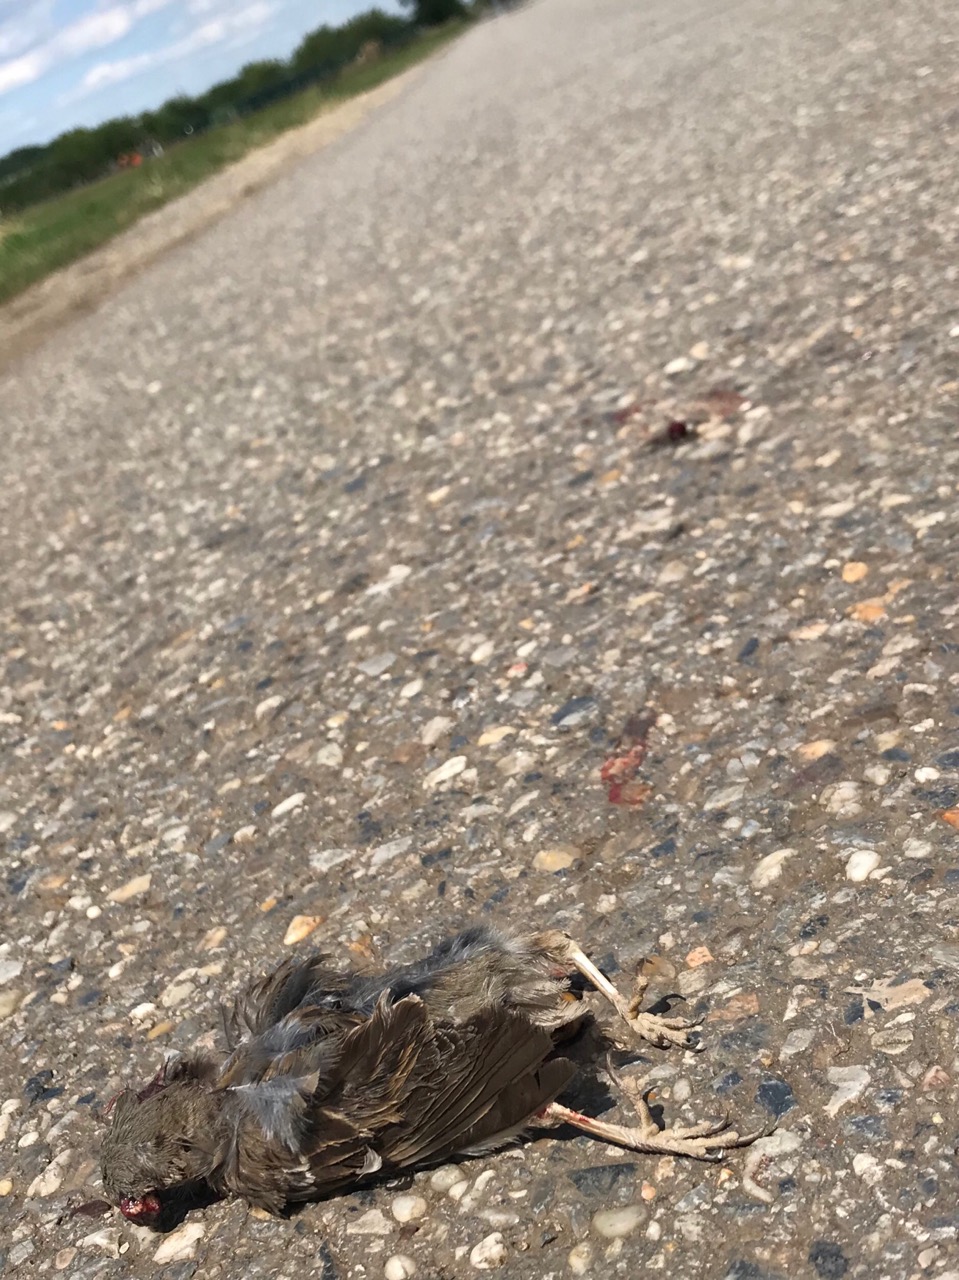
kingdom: Animalia
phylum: Chordata
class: Aves
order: Passeriformes
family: Turdidae
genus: Turdus
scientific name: Turdus merula
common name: Common blackbird
